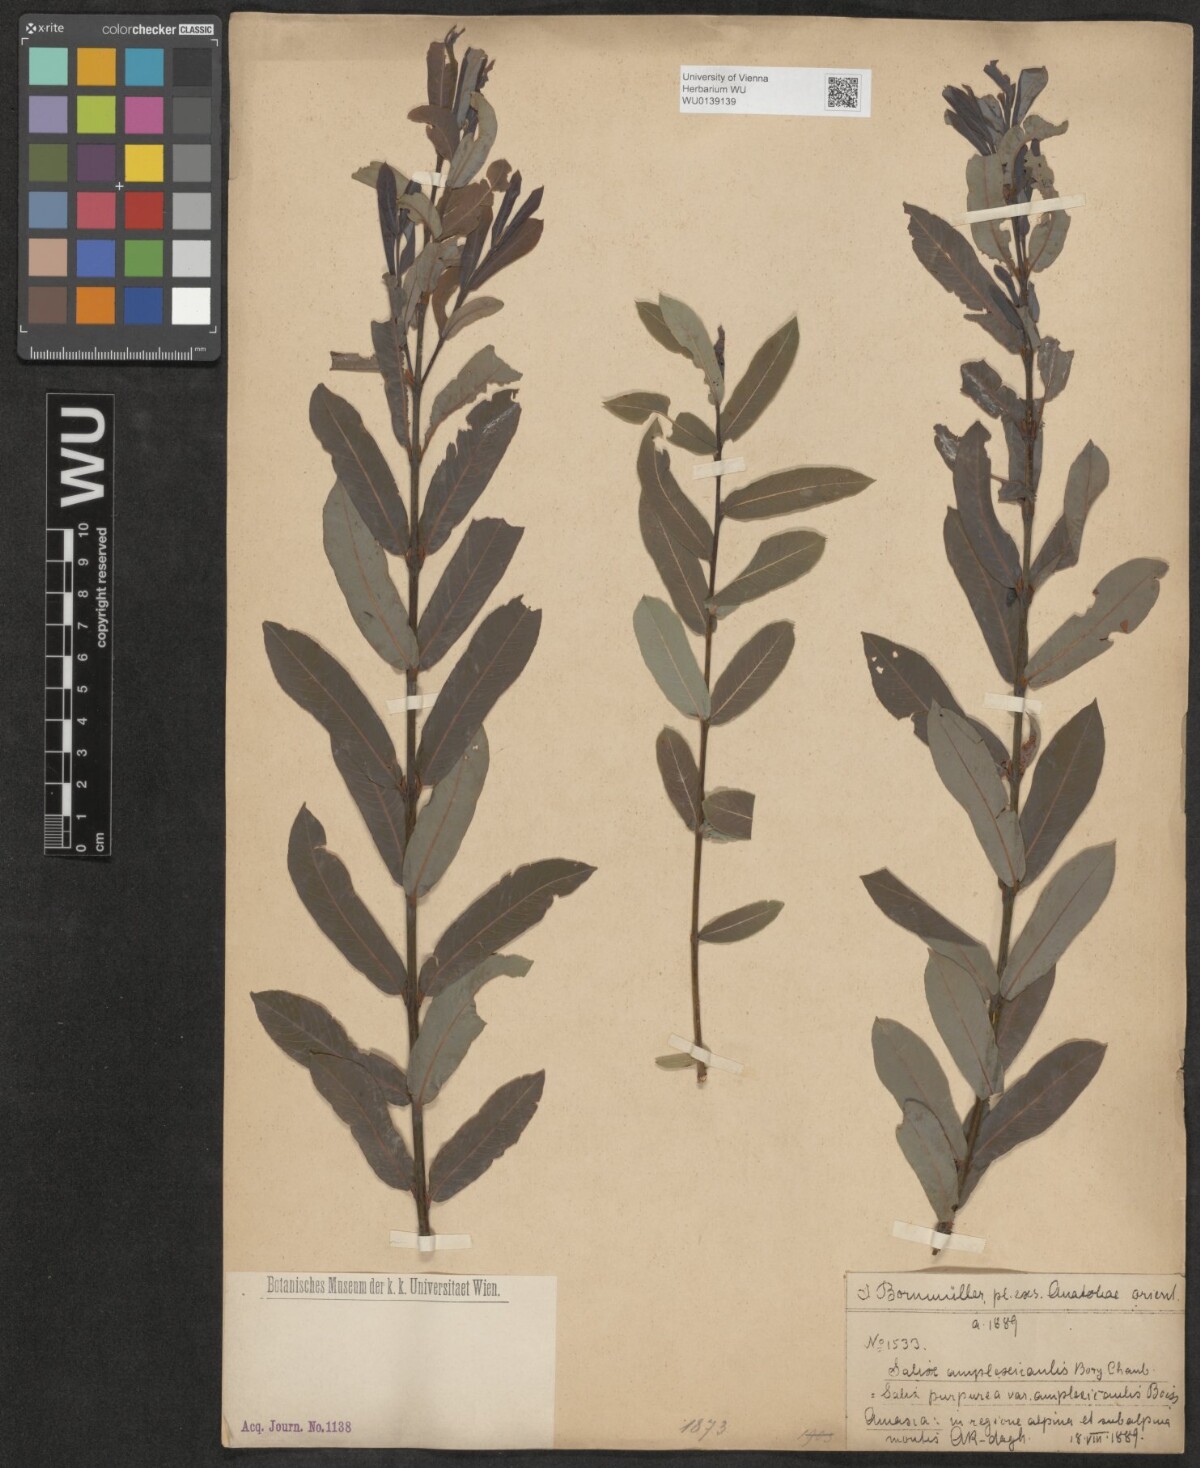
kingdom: Plantae
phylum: Tracheophyta
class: Magnoliopsida
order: Malpighiales
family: Salicaceae
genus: Salix
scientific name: Salix amplexicaulis
